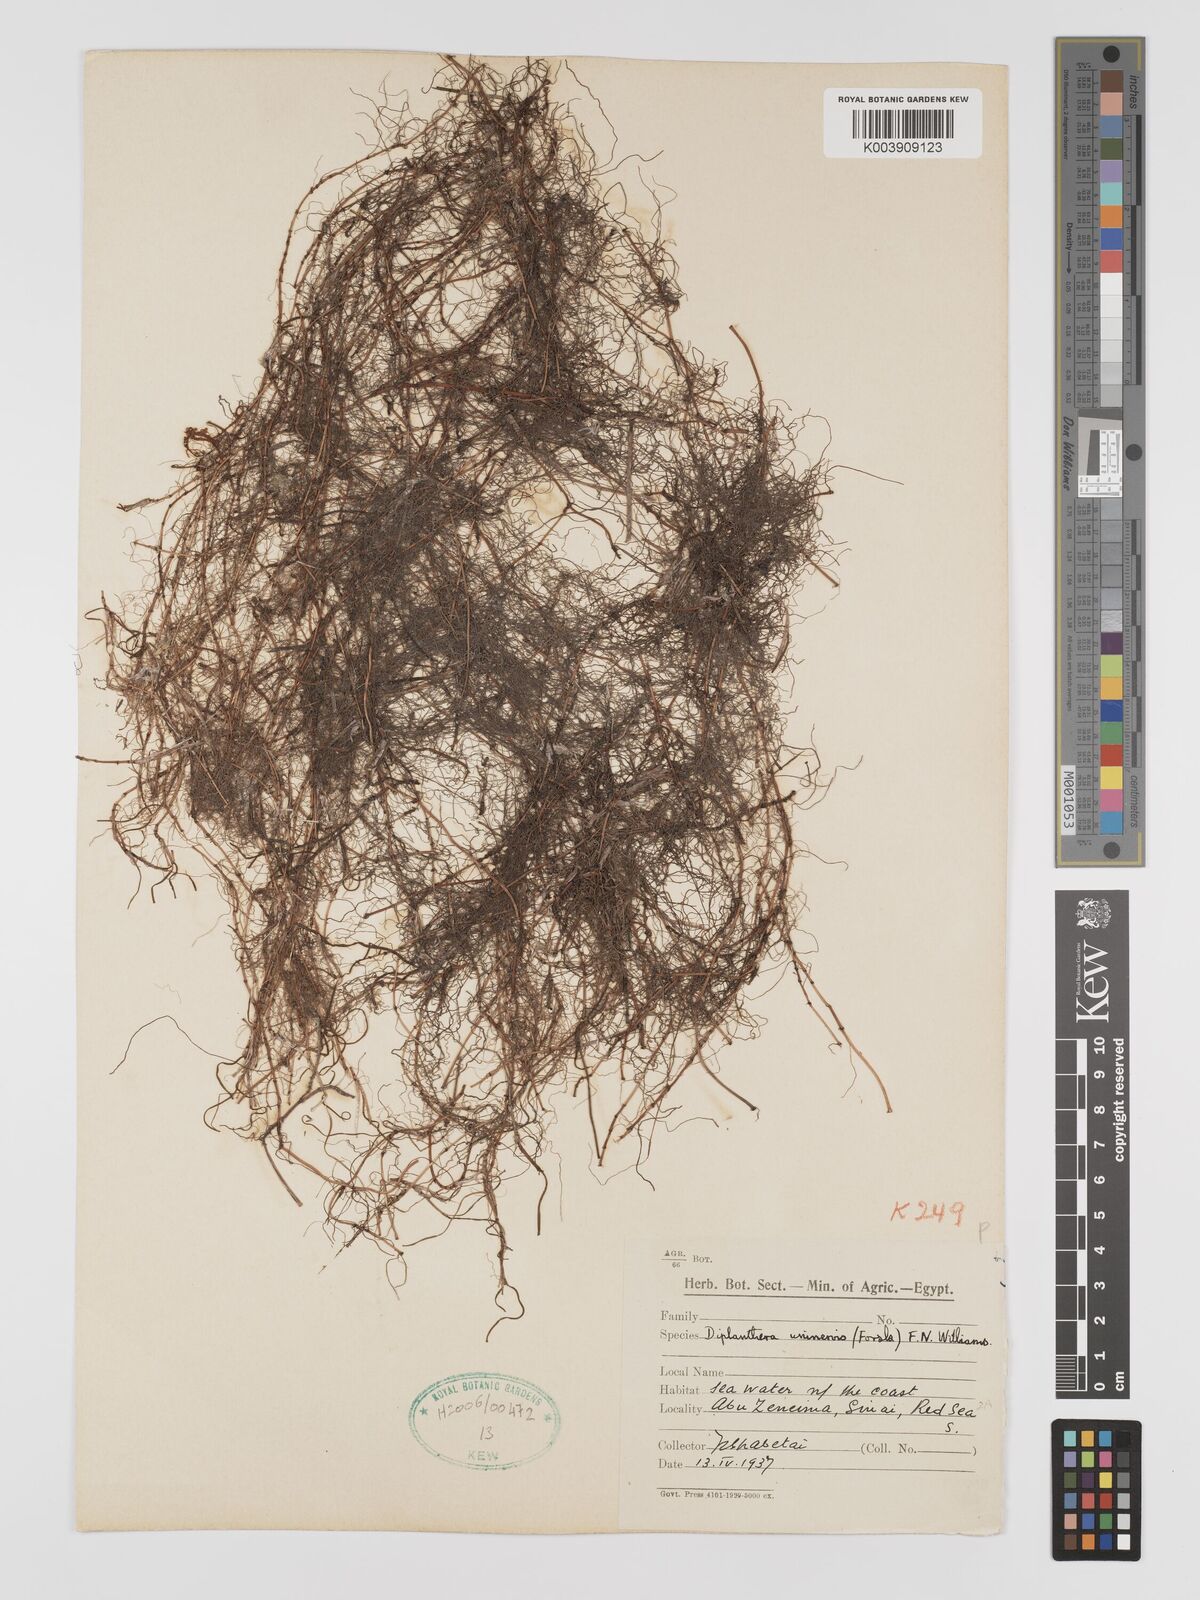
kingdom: Plantae
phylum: Tracheophyta
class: Liliopsida
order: Alismatales
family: Cymodoceaceae
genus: Halodule
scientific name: Halodule uninervis
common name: Narrowleaf seagrass
